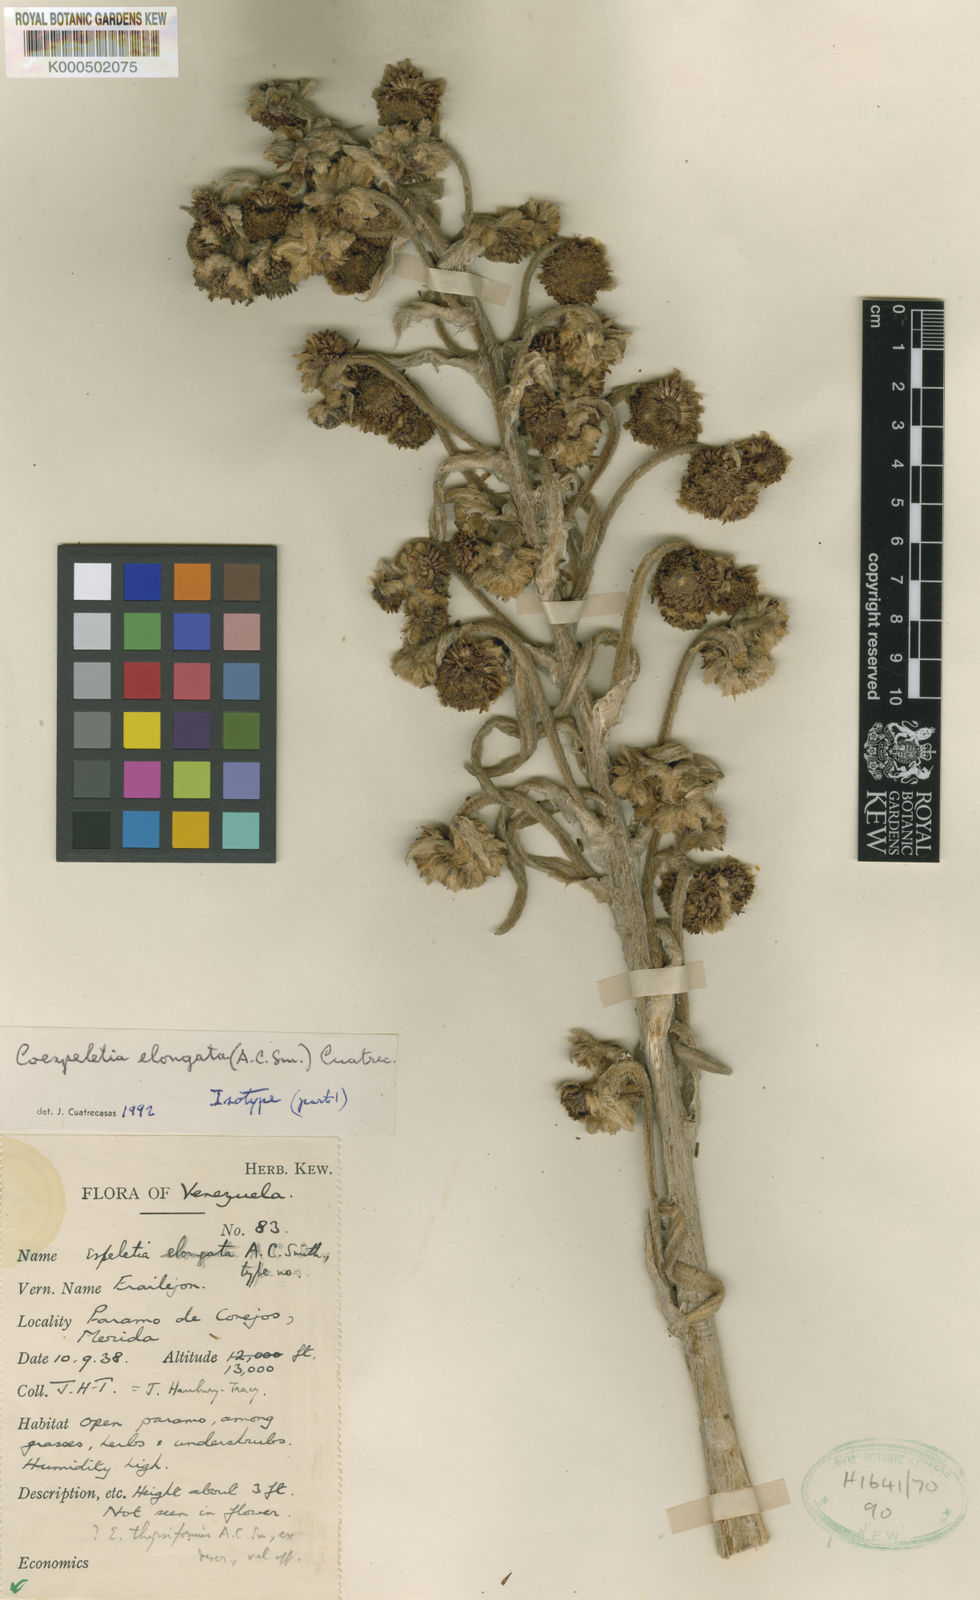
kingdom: Plantae
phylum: Tracheophyta
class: Magnoliopsida
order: Asterales
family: Asteraceae
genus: Espeletia
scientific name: Espeletia elongata
